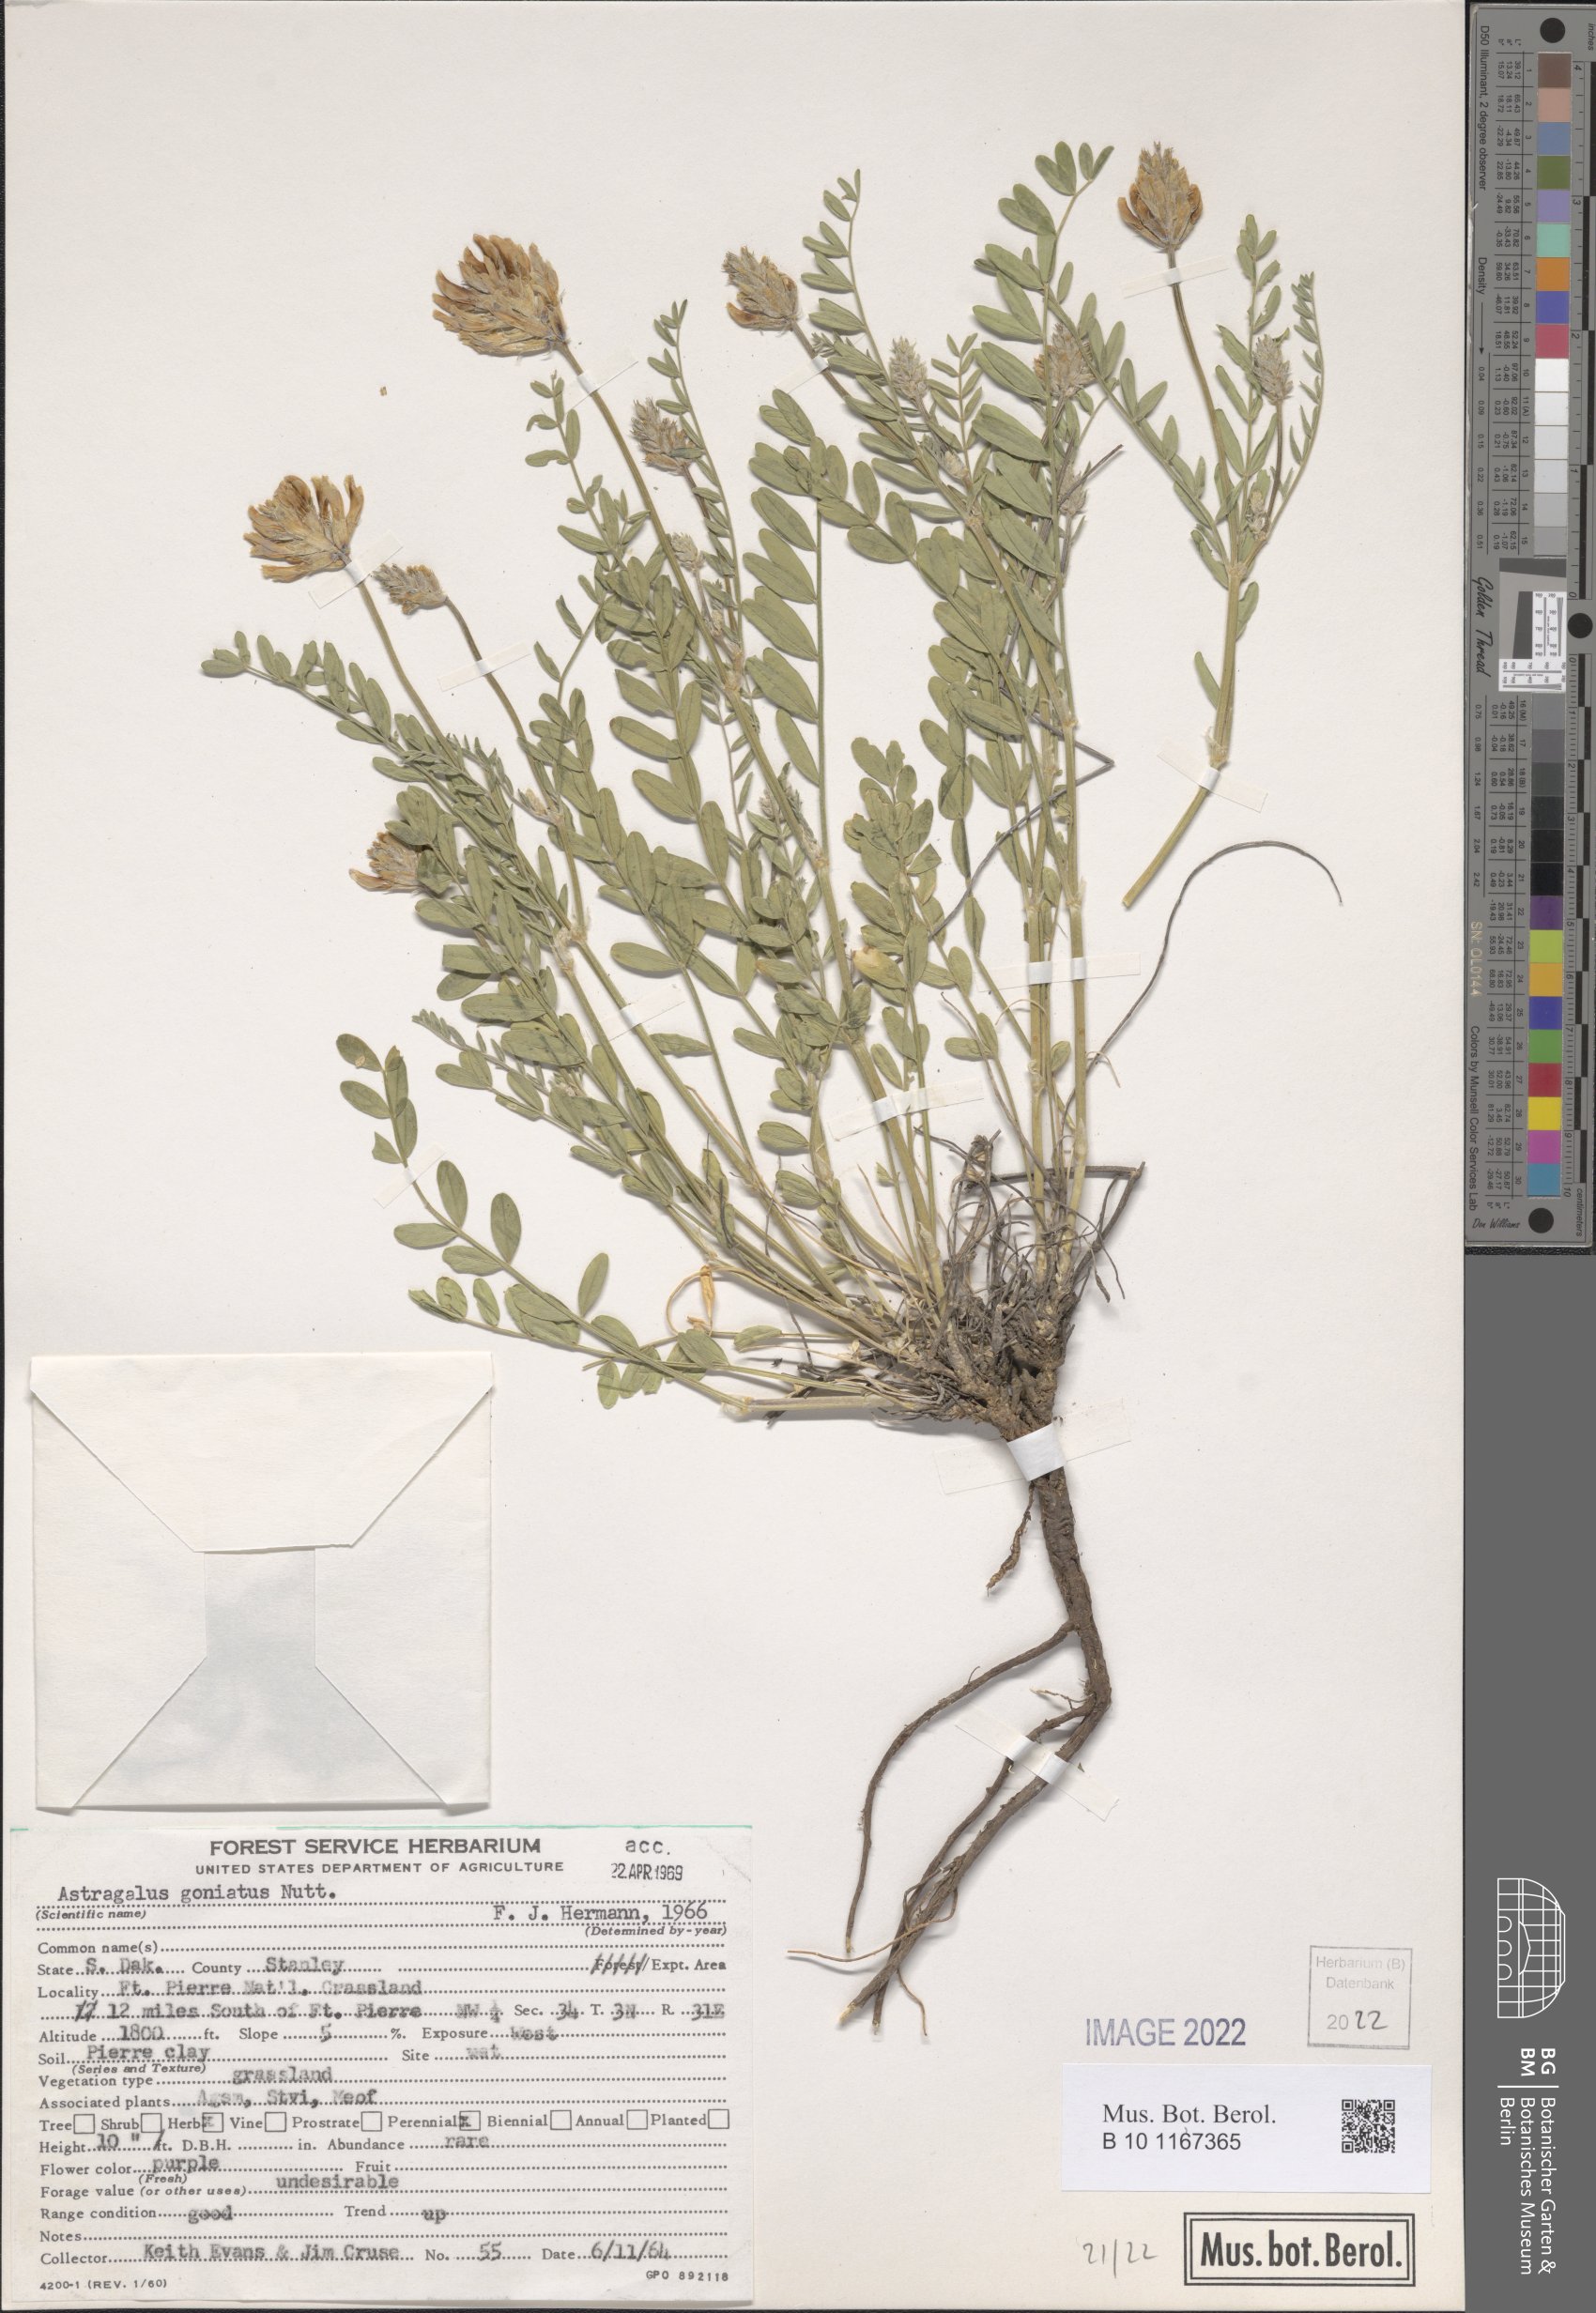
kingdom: Plantae
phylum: Tracheophyta
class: Magnoliopsida
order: Fabales
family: Fabaceae
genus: Astragalus
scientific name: Astragalus agrestis
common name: Field milk-vetch
